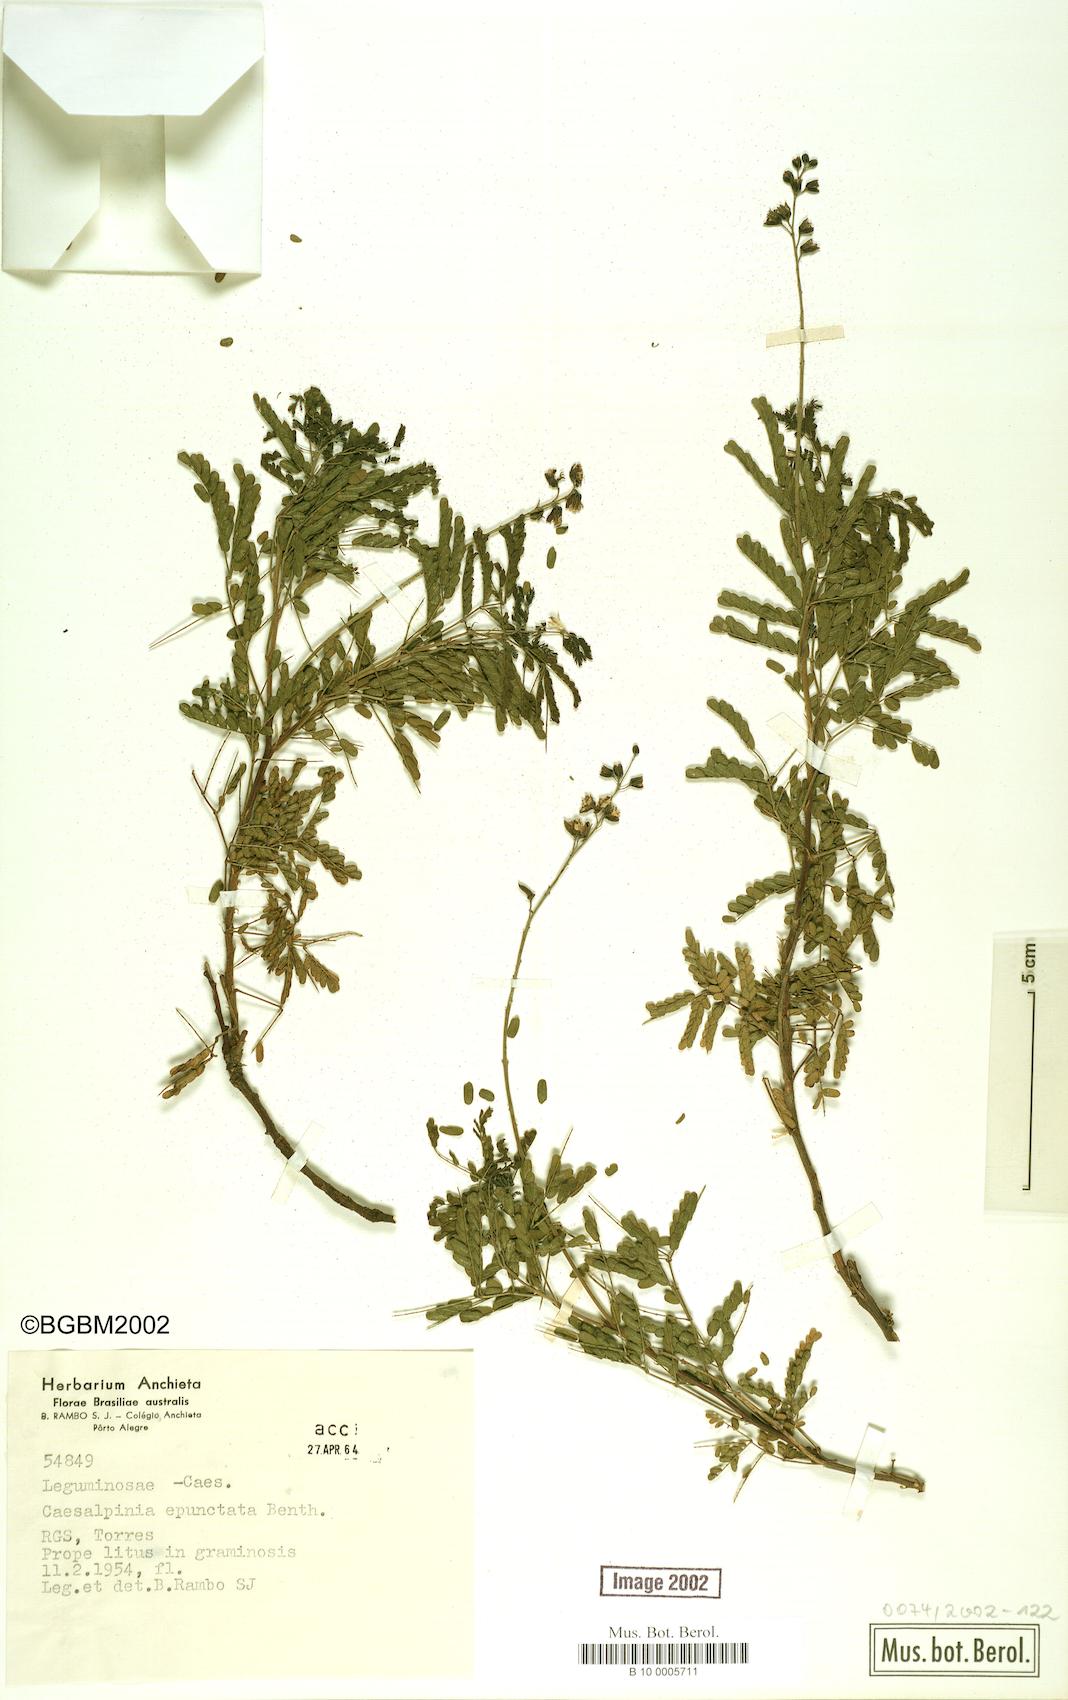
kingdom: Plantae
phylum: Tracheophyta
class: Magnoliopsida
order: Fabales
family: Fabaceae
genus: Pomaria
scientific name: Pomaria pilosa
